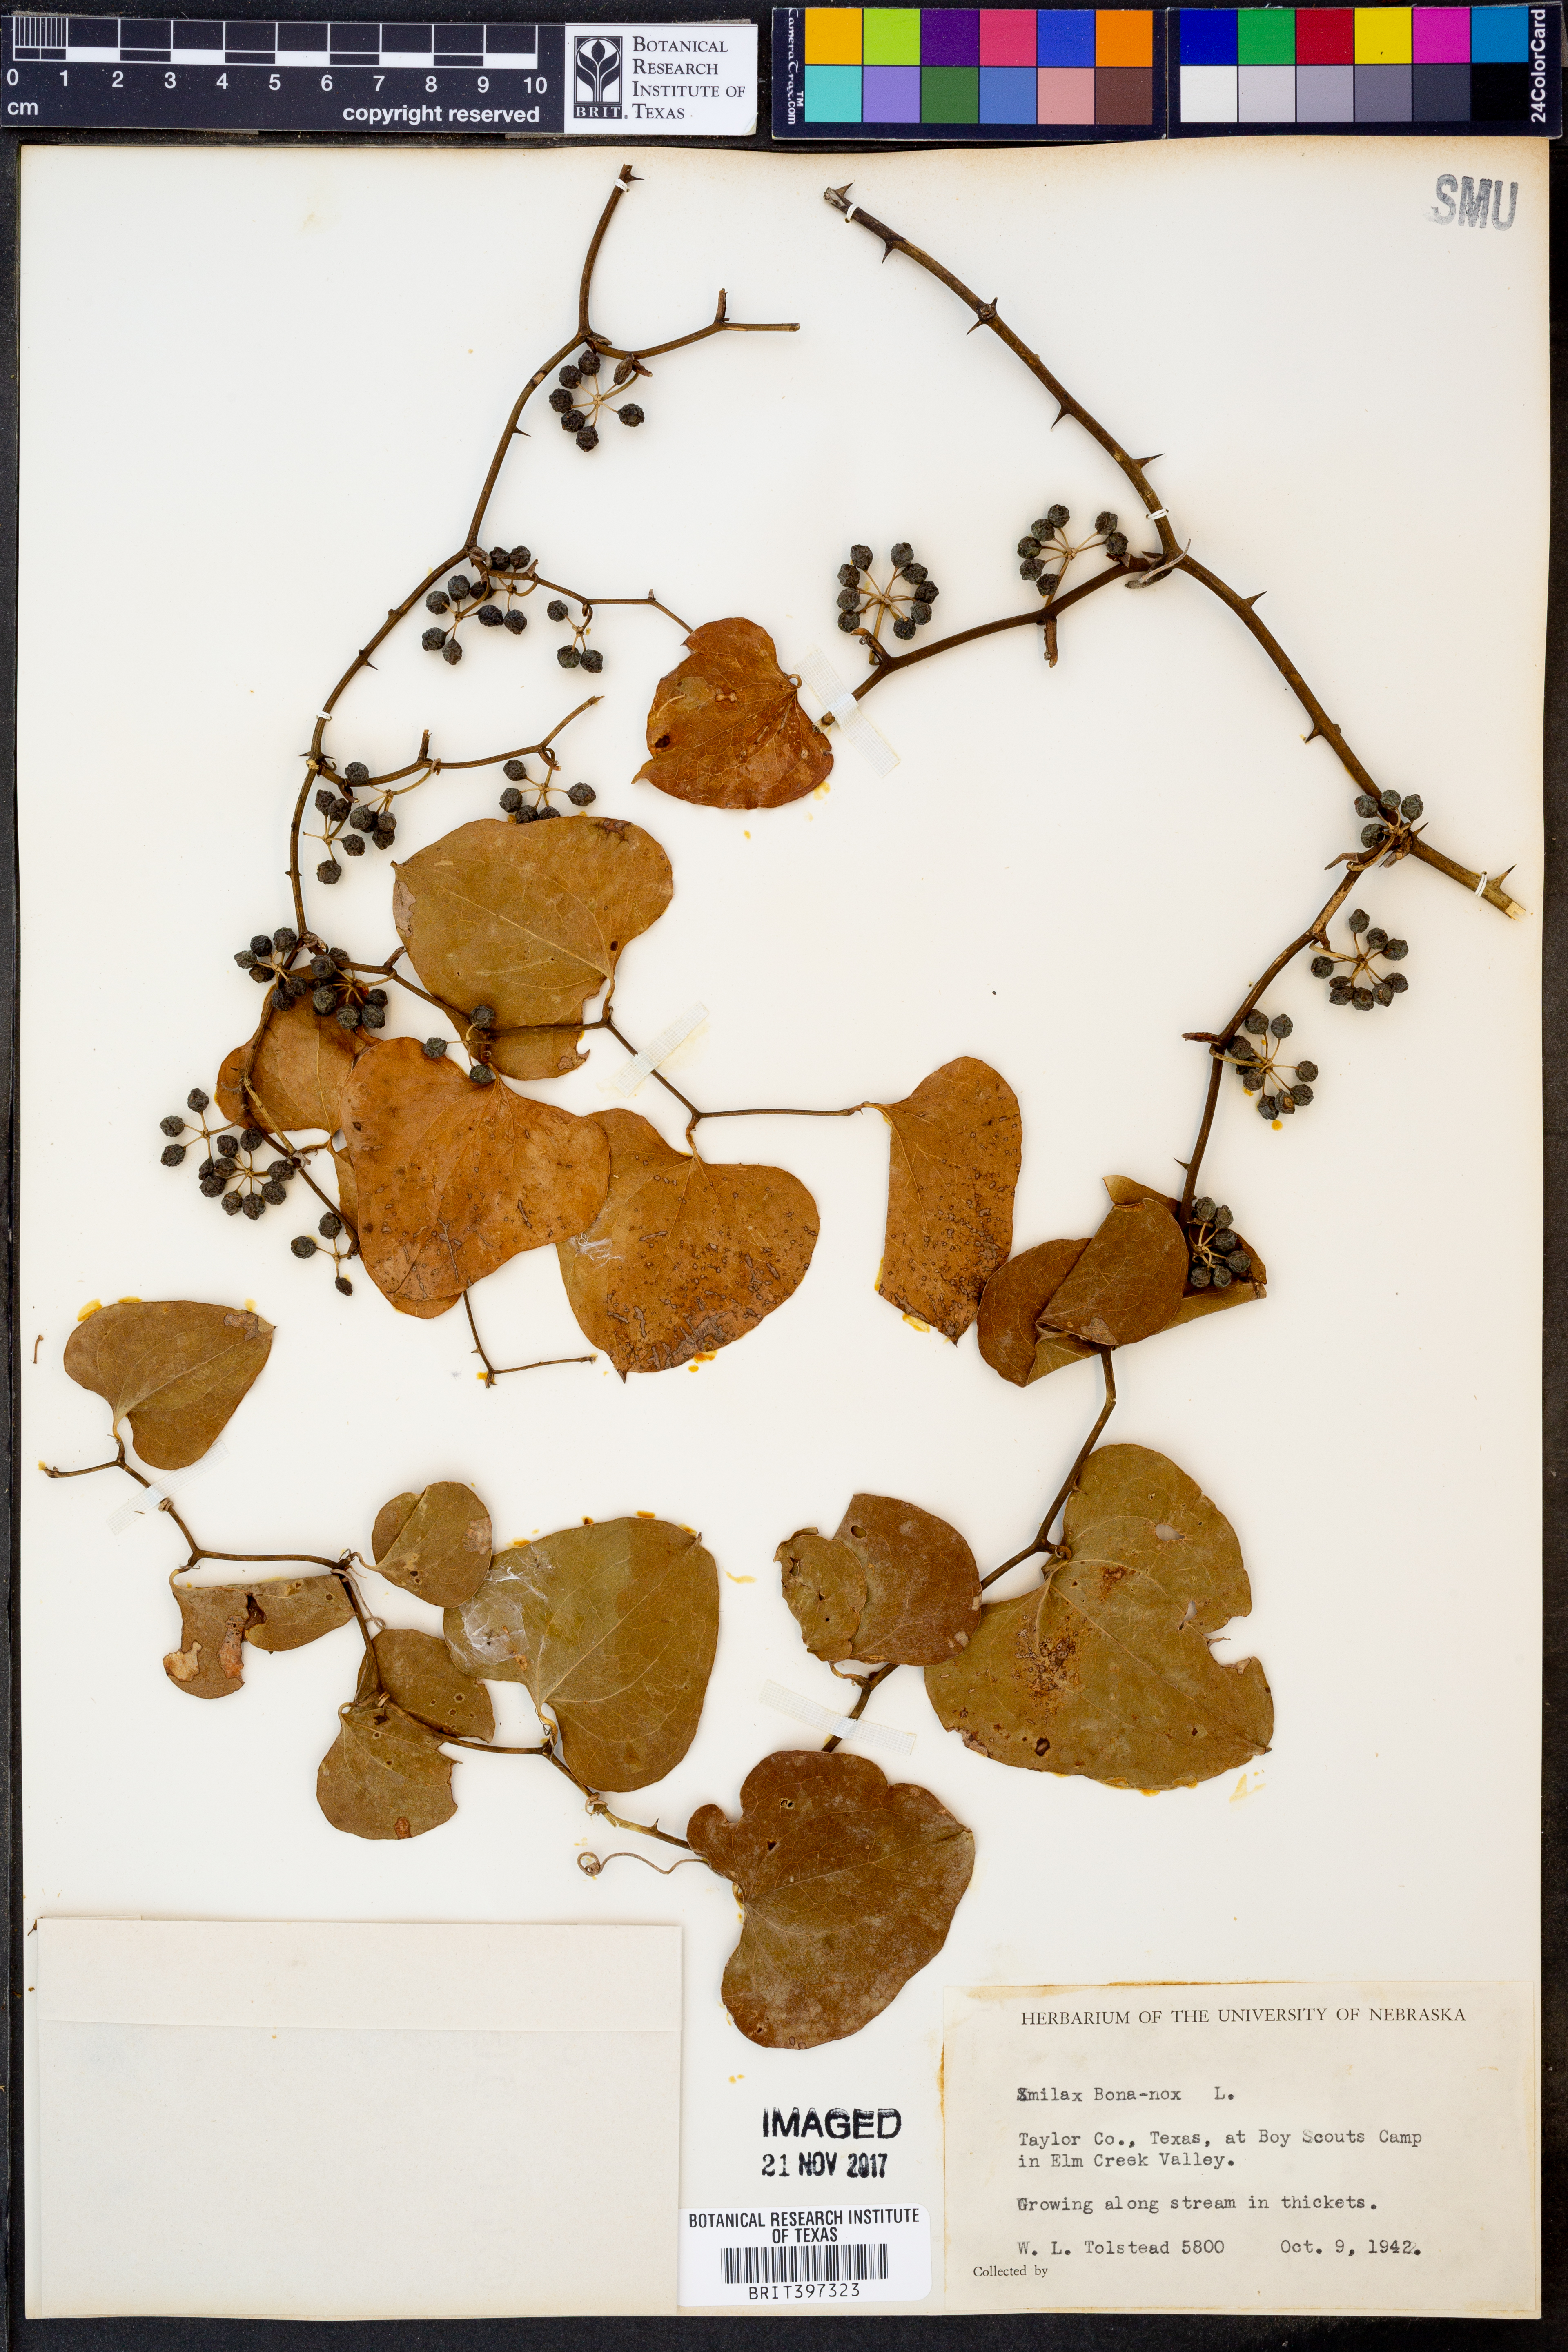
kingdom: Plantae
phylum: Tracheophyta
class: Liliopsida
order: Liliales
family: Smilacaceae
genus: Smilax
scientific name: Smilax bona-nox
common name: Catbrier
